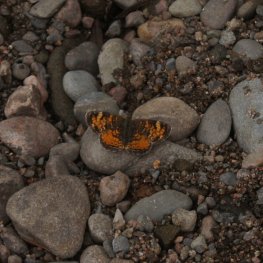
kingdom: Animalia
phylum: Arthropoda
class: Insecta
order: Lepidoptera
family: Nymphalidae
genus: Phyciodes
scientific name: Phyciodes tharos
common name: Northern Crescent
